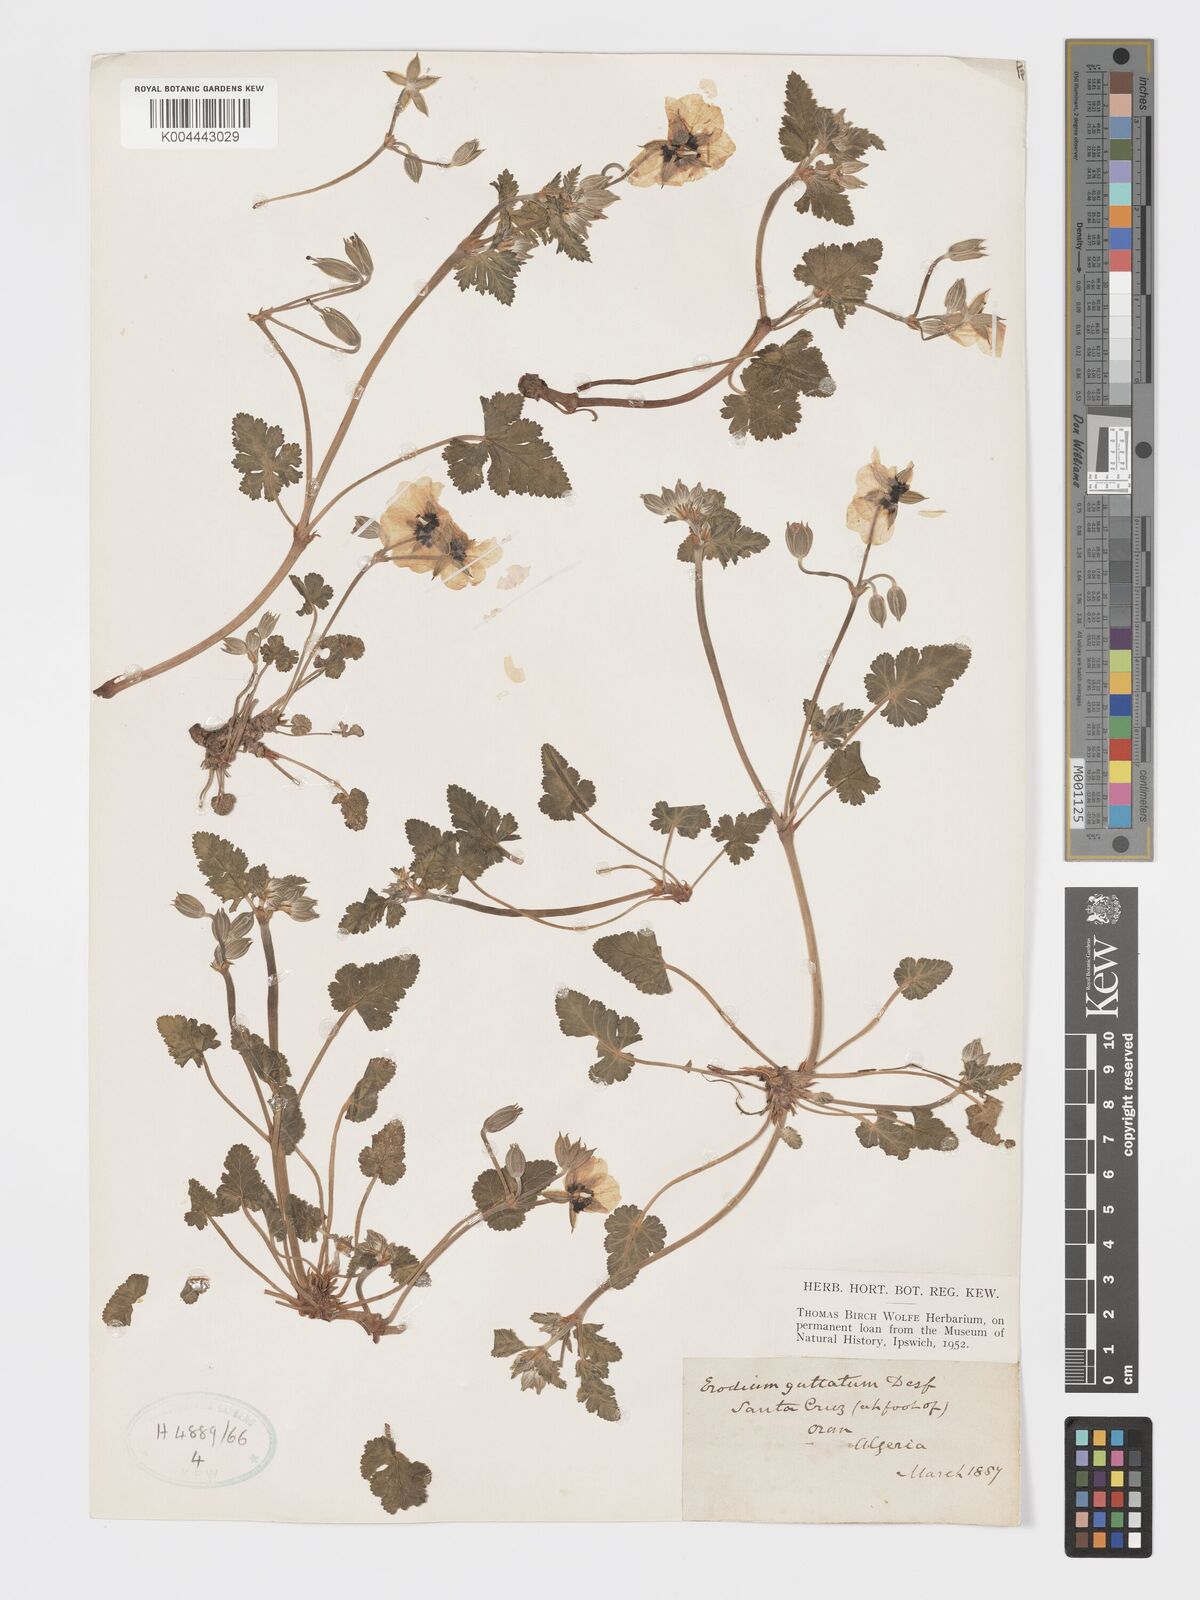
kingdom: Plantae
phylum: Tracheophyta
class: Magnoliopsida
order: Geraniales
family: Geraniaceae
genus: Erodium
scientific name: Erodium guttatum
